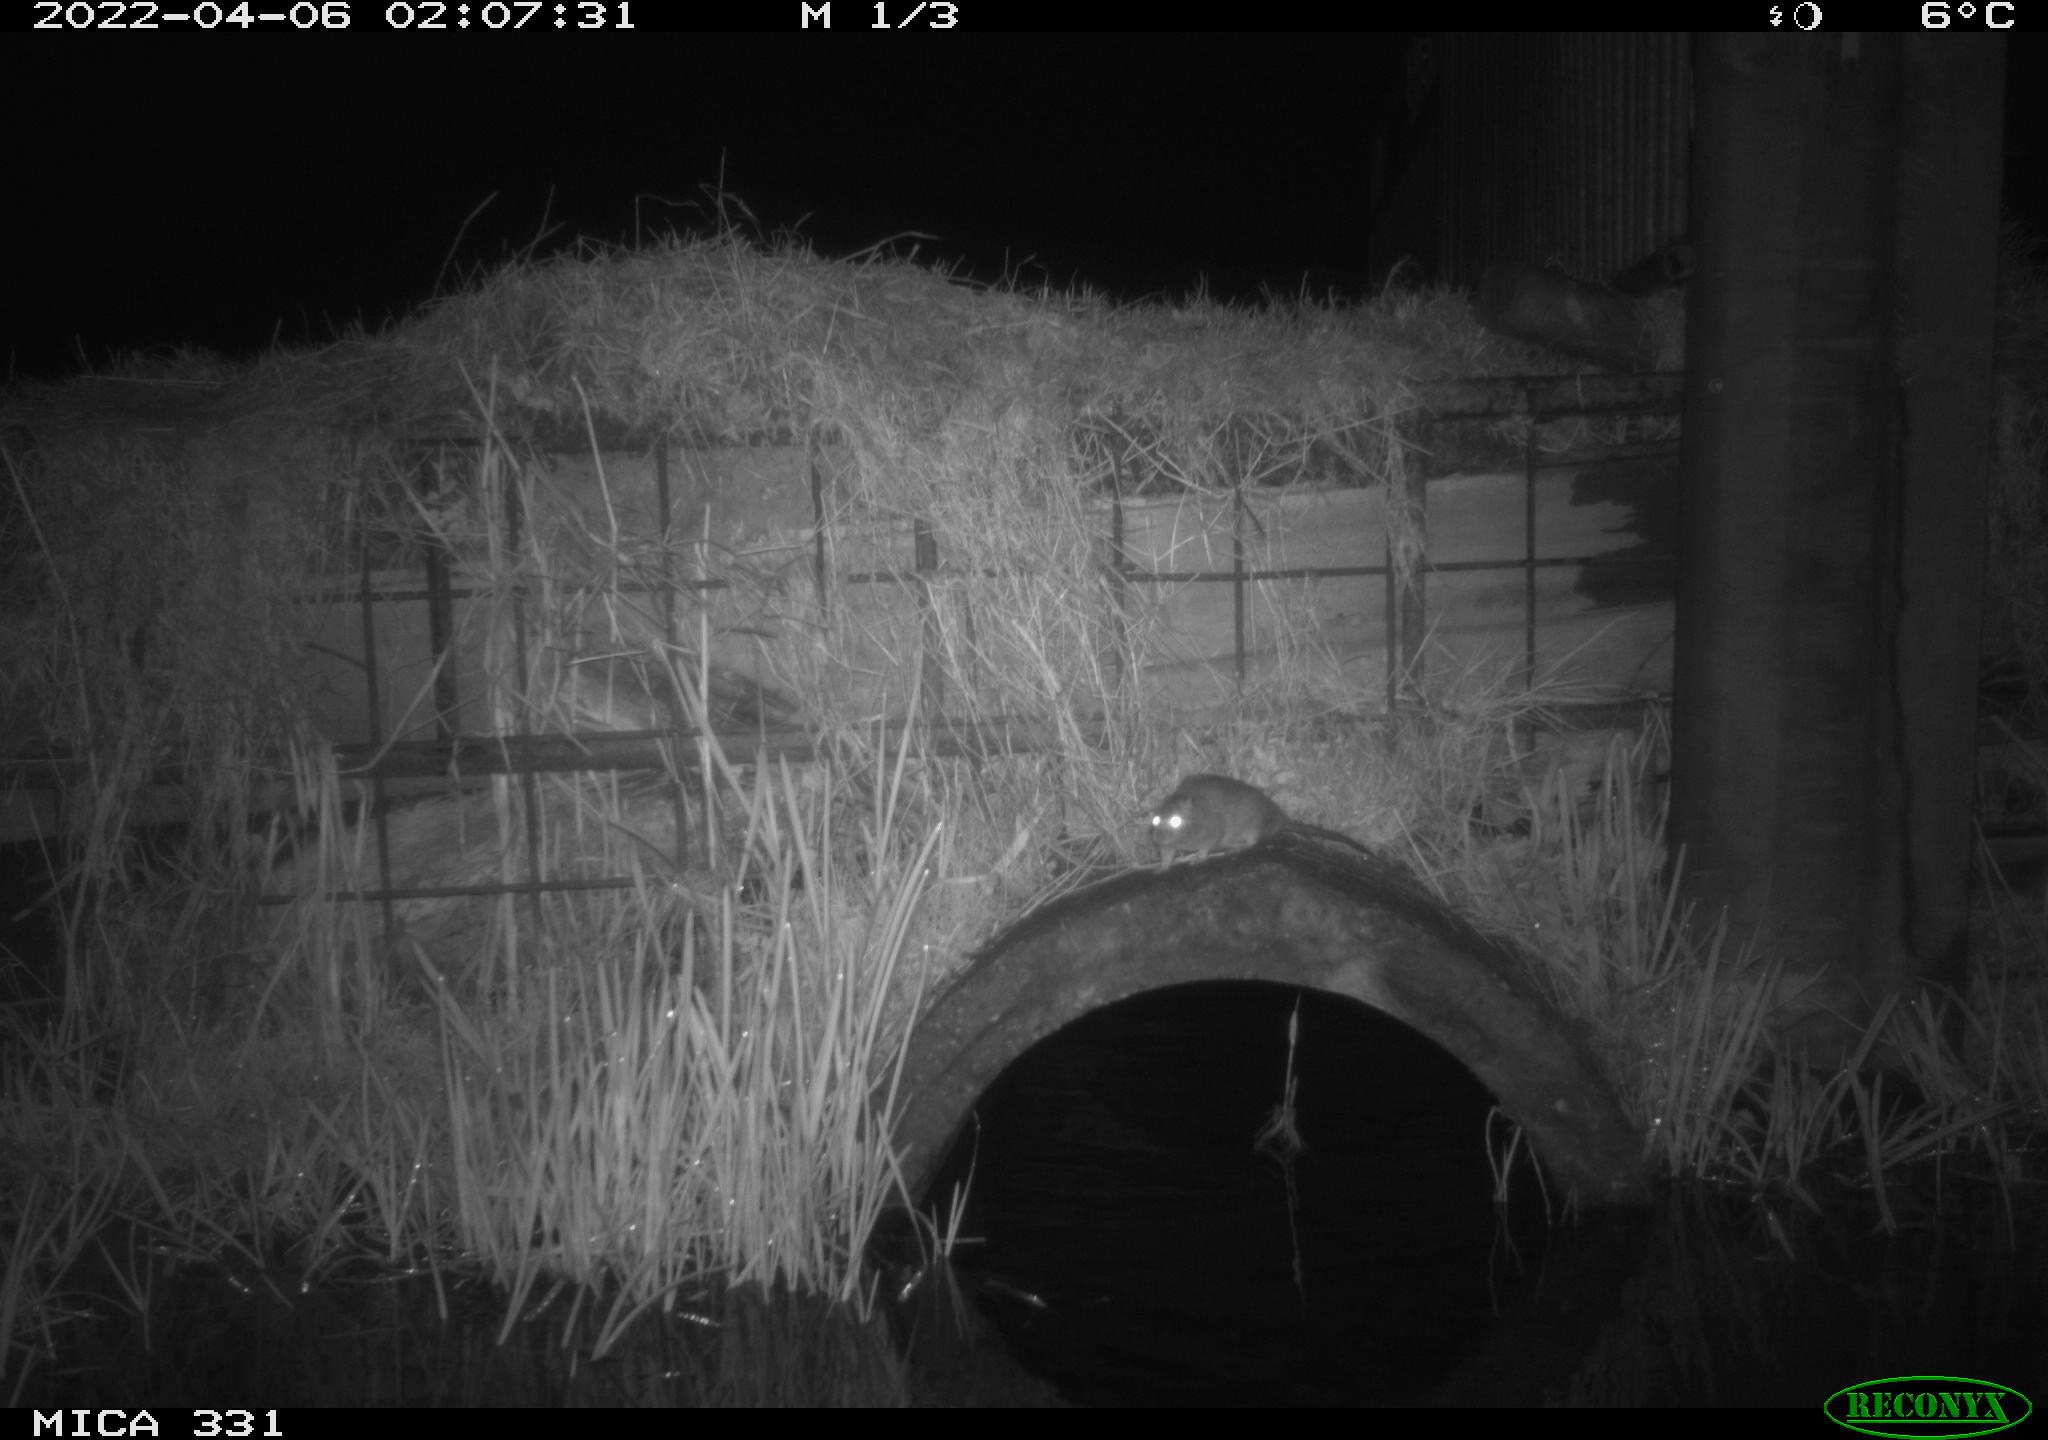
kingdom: Animalia
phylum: Chordata
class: Mammalia
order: Rodentia
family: Muridae
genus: Rattus
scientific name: Rattus norvegicus
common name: Brown rat
